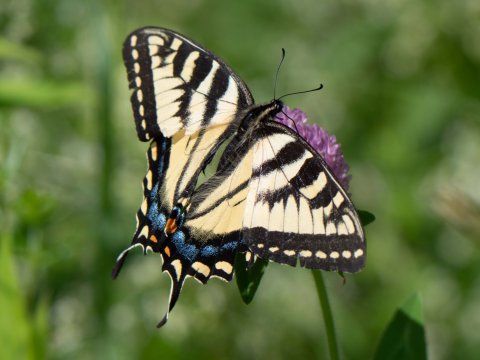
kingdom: Animalia
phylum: Arthropoda
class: Insecta
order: Lepidoptera
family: Papilionidae
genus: Pterourus
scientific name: Pterourus canadensis
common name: Canadian Tiger Swallowtail
